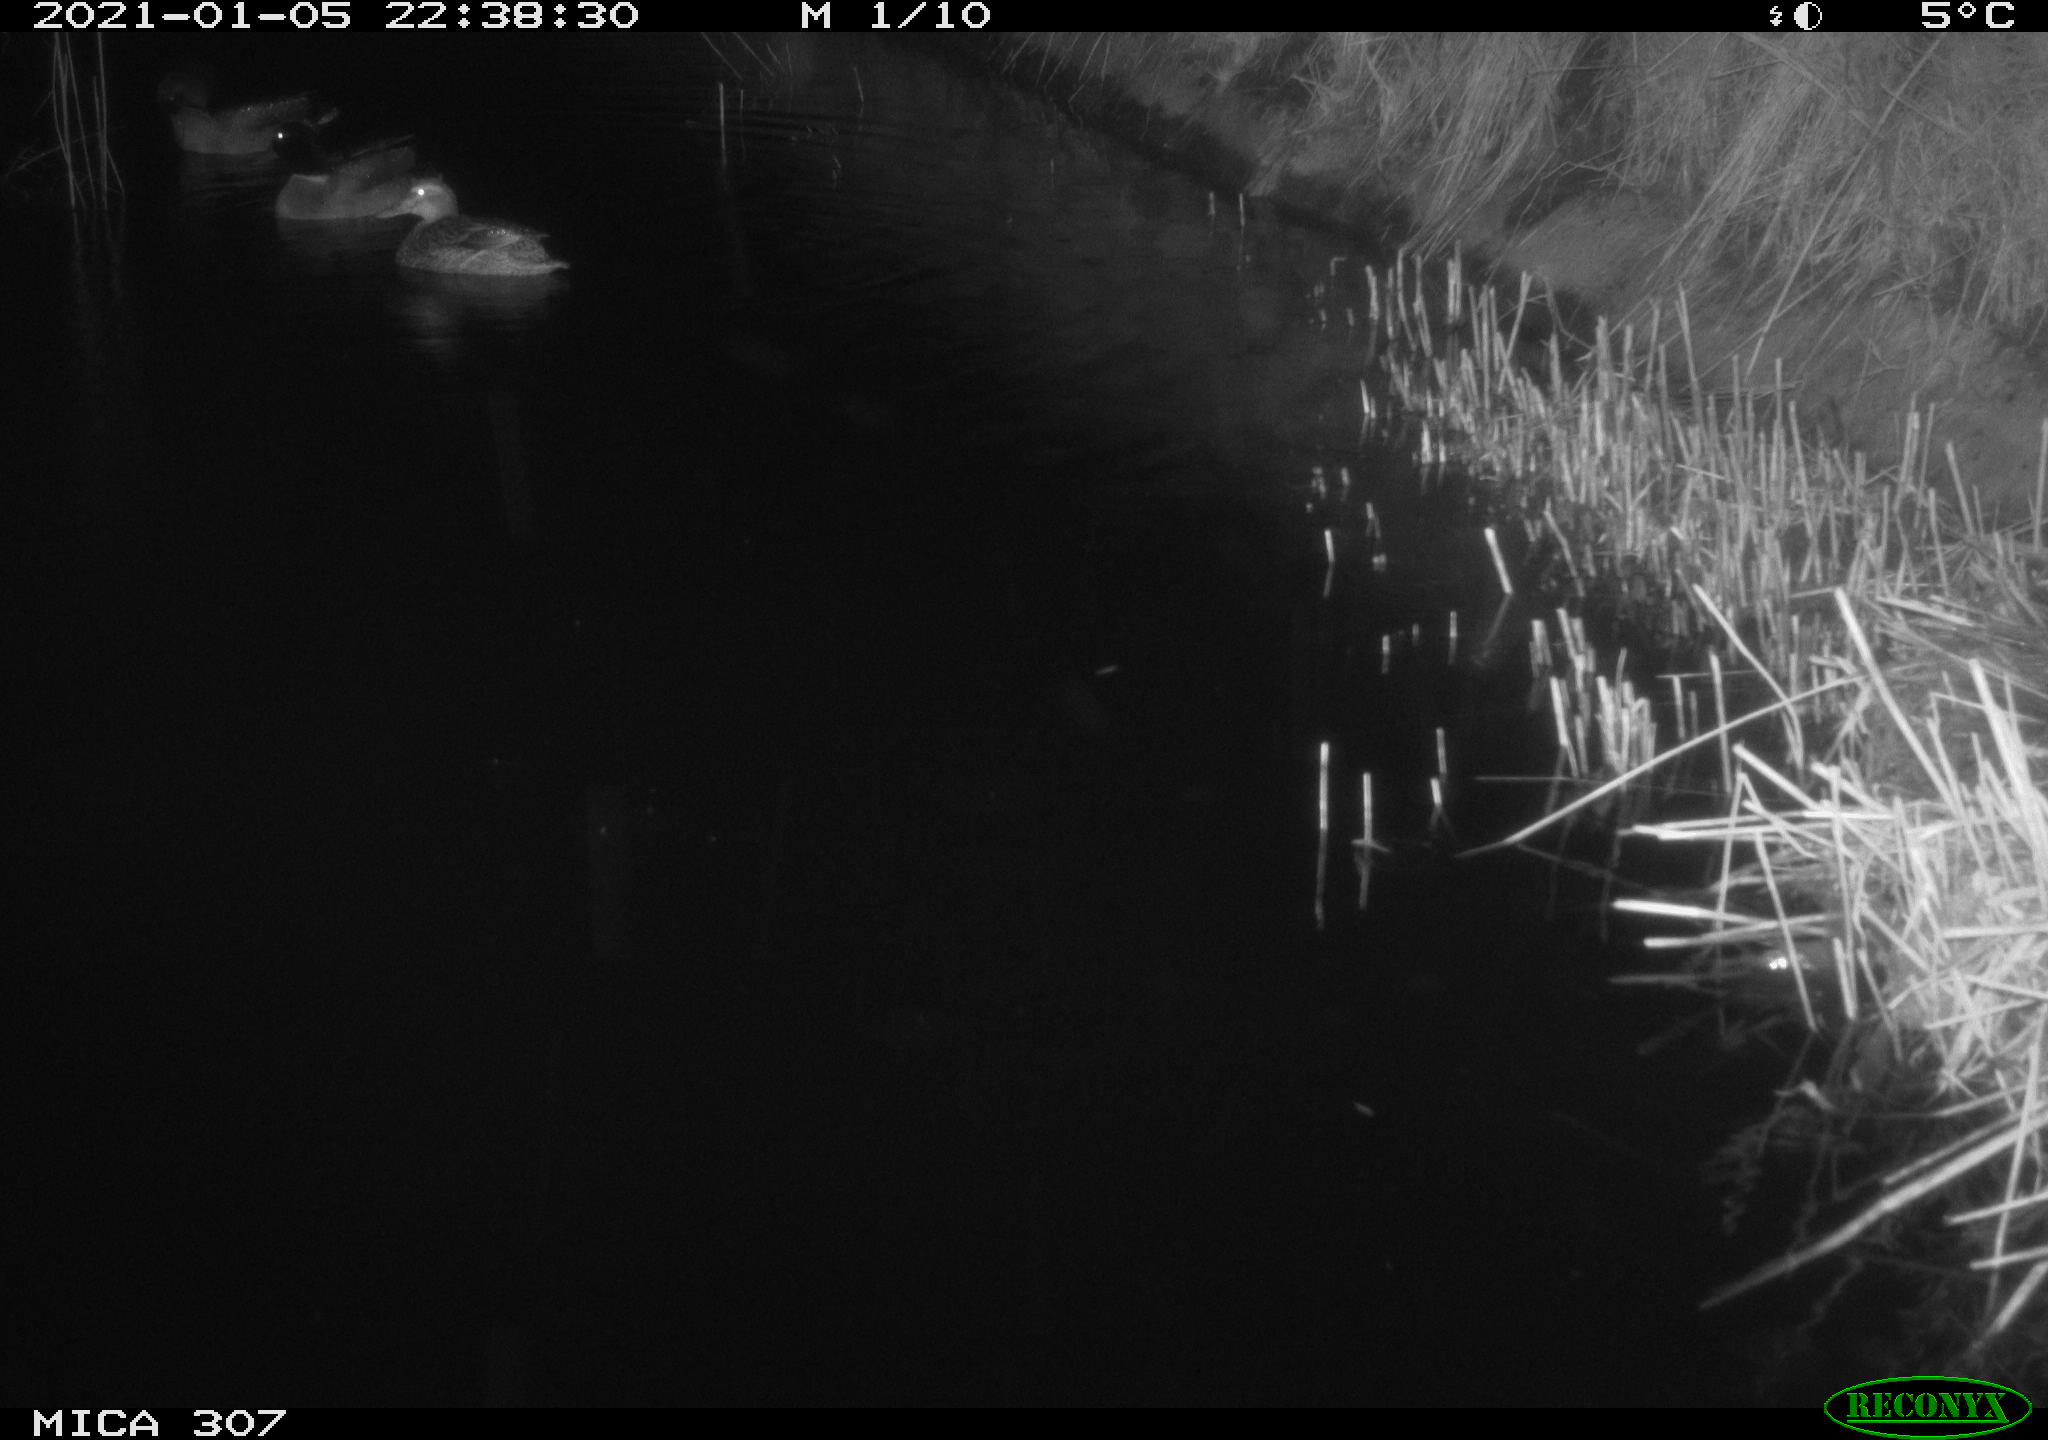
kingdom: Animalia
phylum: Chordata
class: Aves
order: Anseriformes
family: Anatidae
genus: Anas
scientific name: Anas
